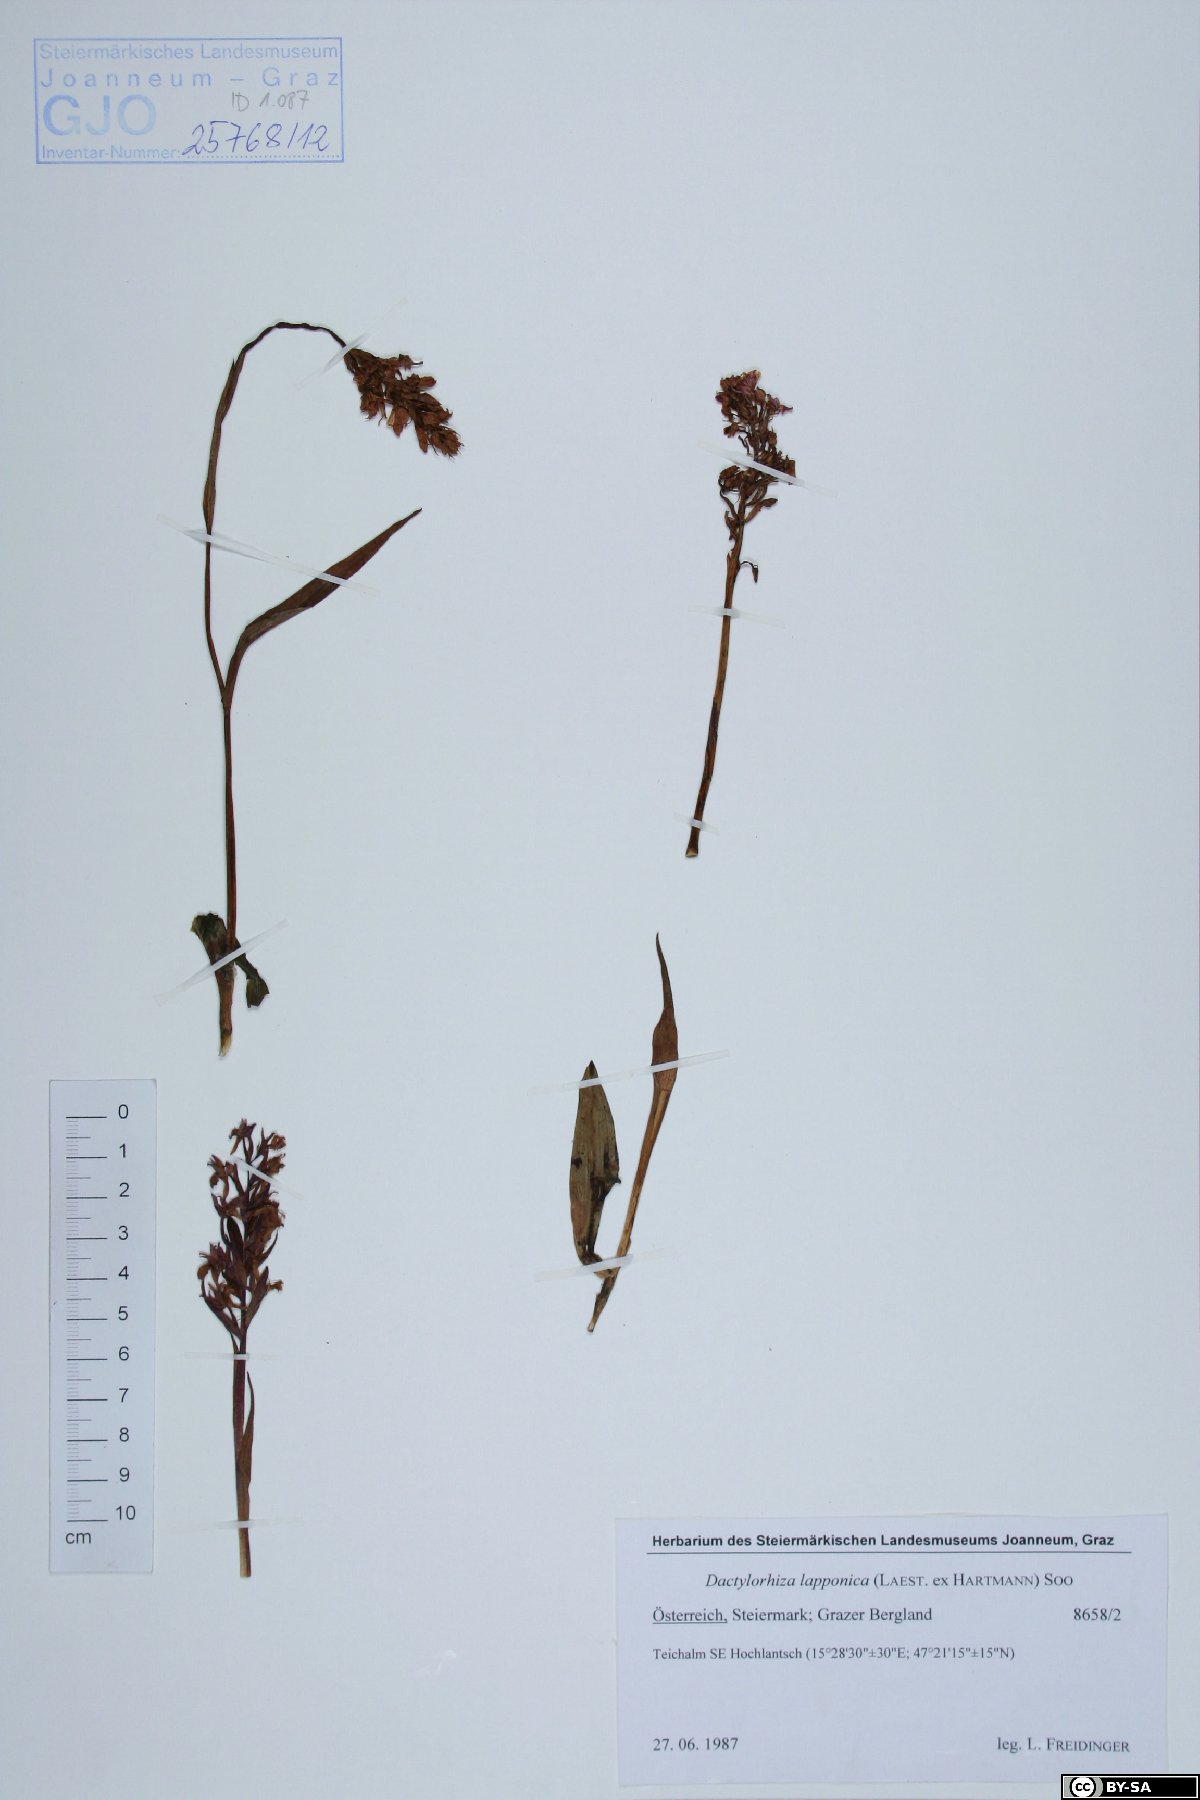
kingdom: Plantae
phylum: Tracheophyta
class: Liliopsida
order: Asparagales
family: Orchidaceae
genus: Dactylorhiza
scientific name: Dactylorhiza majalis
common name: Marsh orchid
